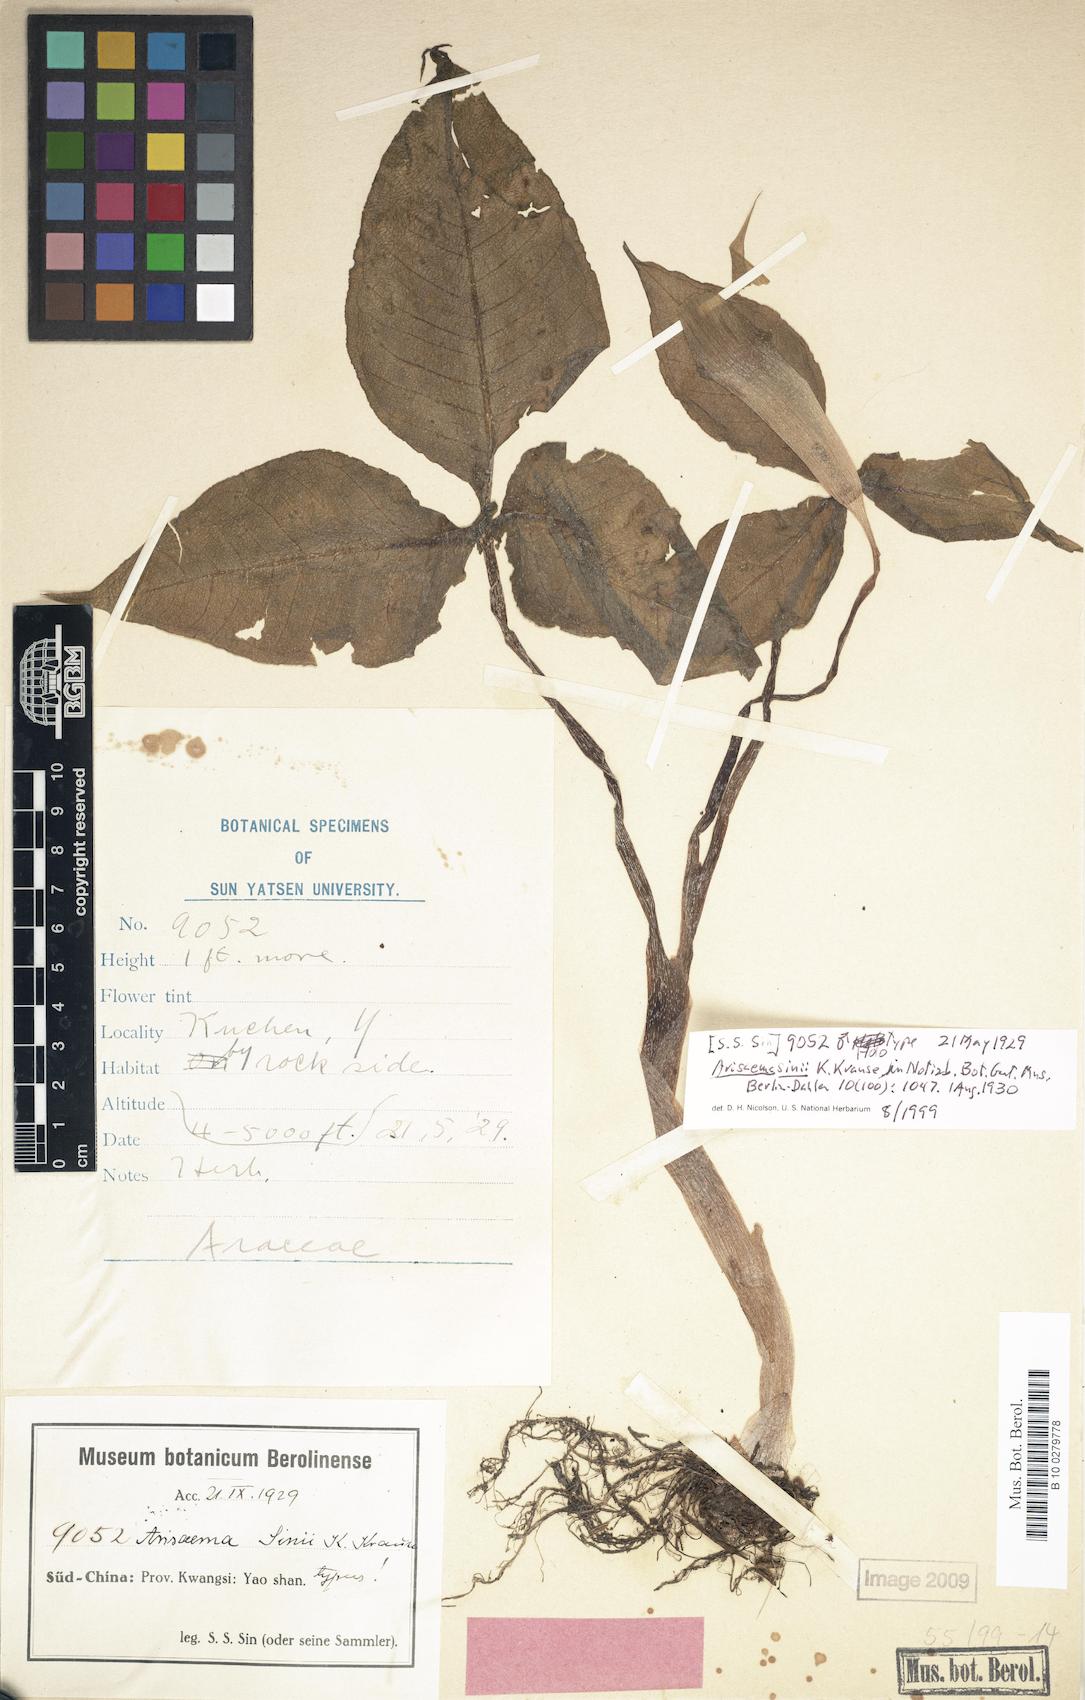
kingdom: Plantae
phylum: Tracheophyta
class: Liliopsida
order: Alismatales
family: Araceae
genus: Arisaema
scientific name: Arisaema sinii
